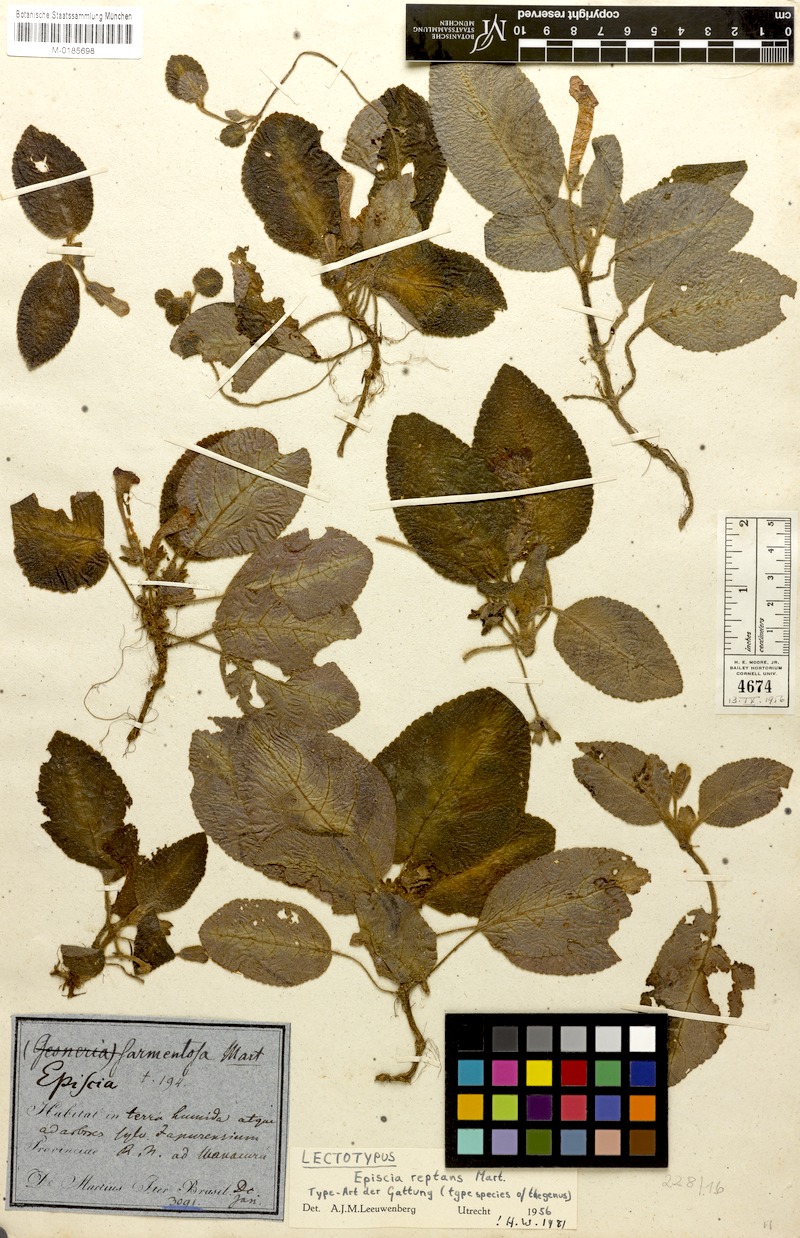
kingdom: Plantae
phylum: Tracheophyta
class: Magnoliopsida
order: Lamiales
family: Gesneriaceae
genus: Episcia
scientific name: Episcia reptans
